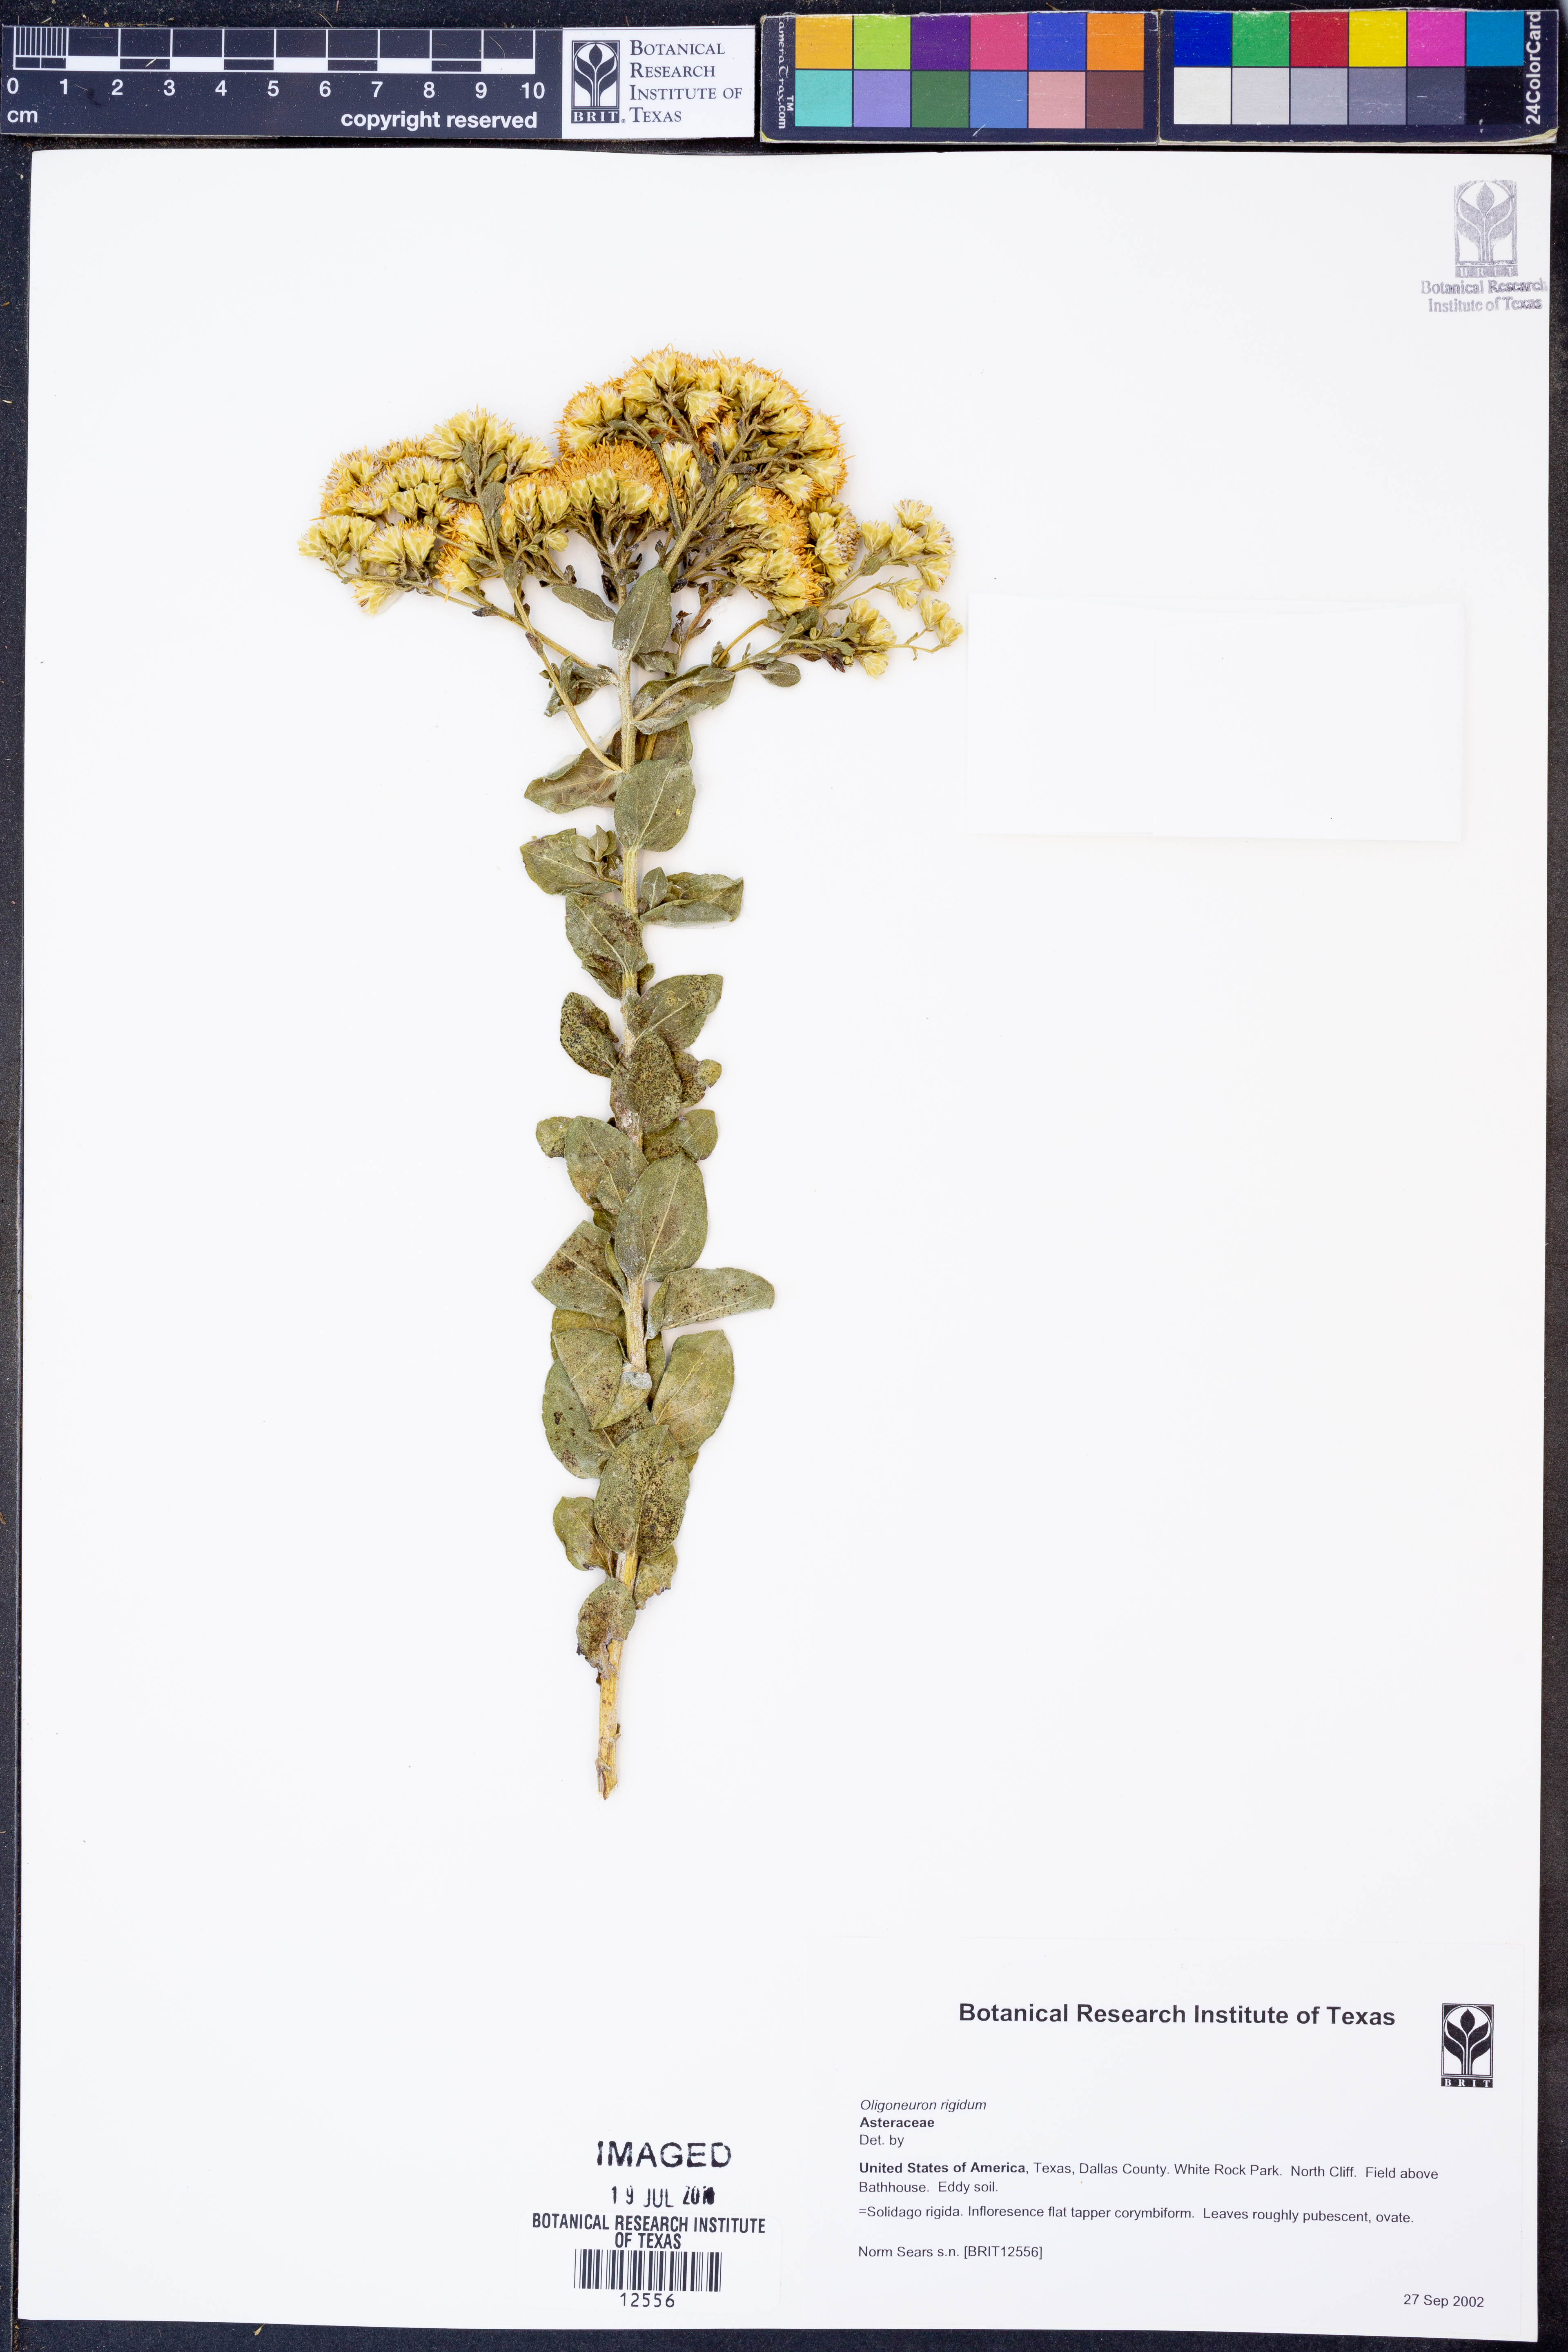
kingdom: Plantae
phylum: Tracheophyta
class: Magnoliopsida
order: Asterales
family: Asteraceae
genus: Solidago
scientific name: Solidago rigida
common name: Rigid goldenrod
